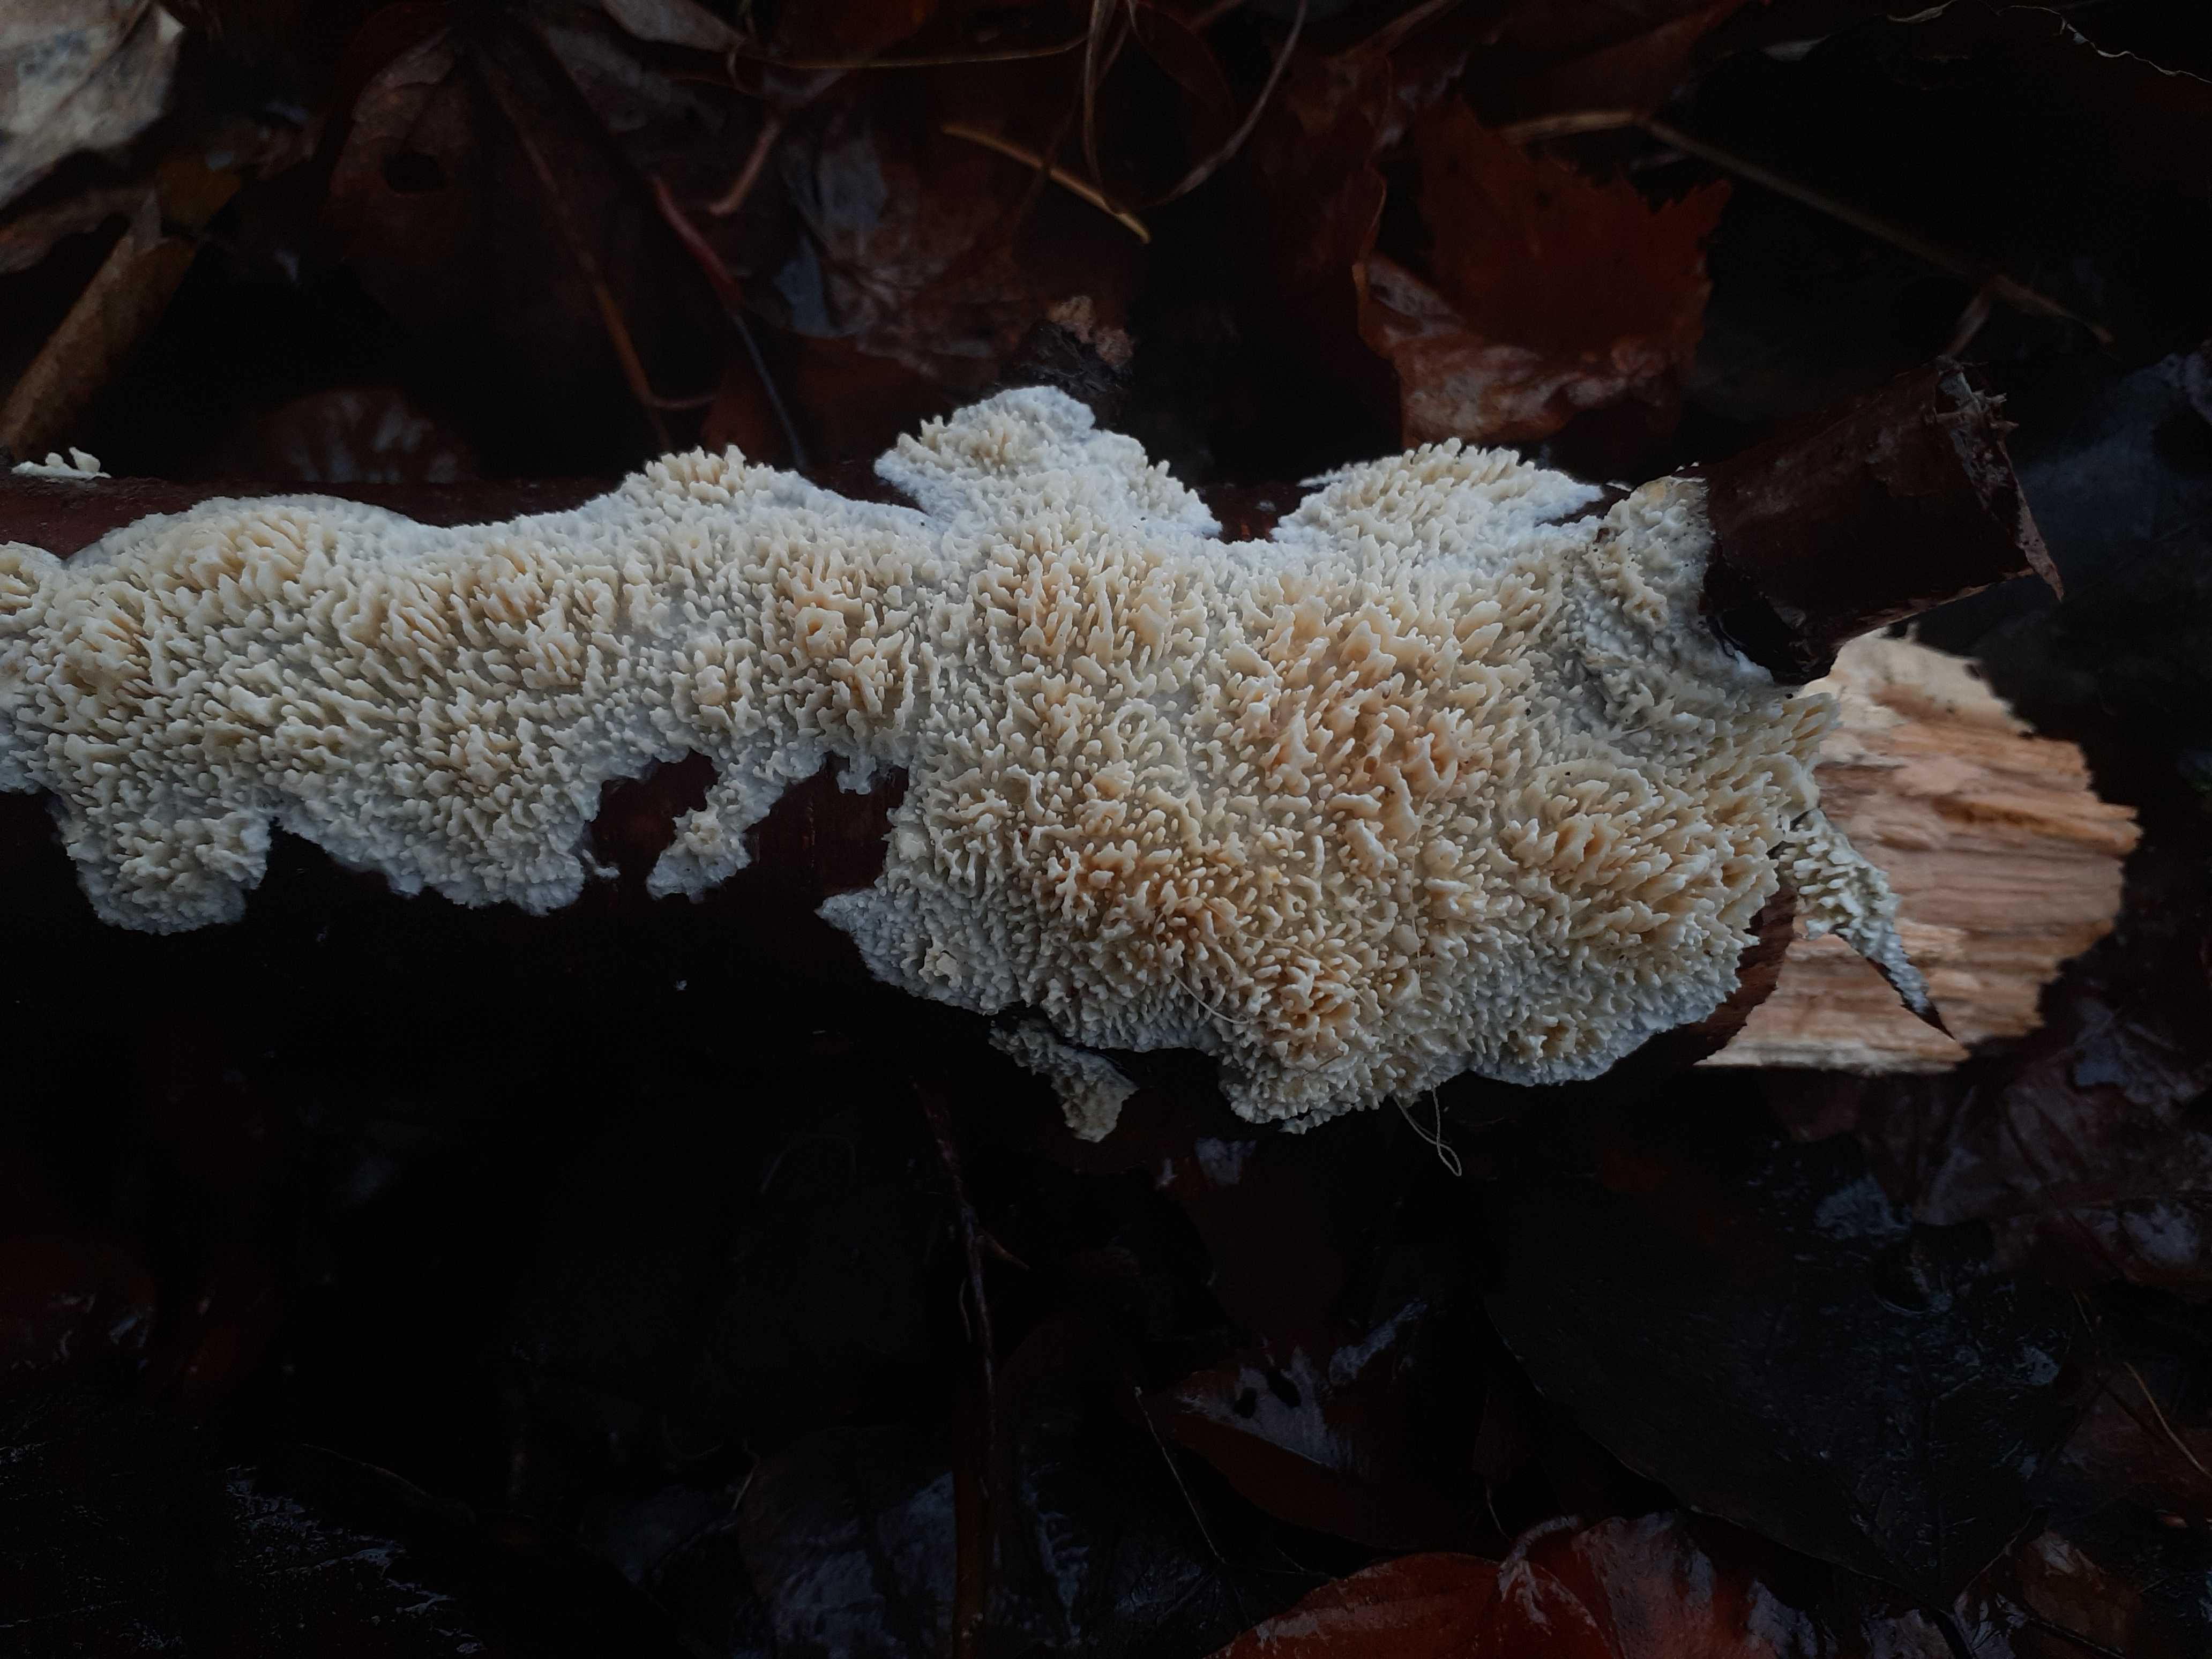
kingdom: Fungi
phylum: Basidiomycota
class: Agaricomycetes
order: Hymenochaetales
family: Schizoporaceae
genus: Xylodon
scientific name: Xylodon radula
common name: grovtandet kalkskind
